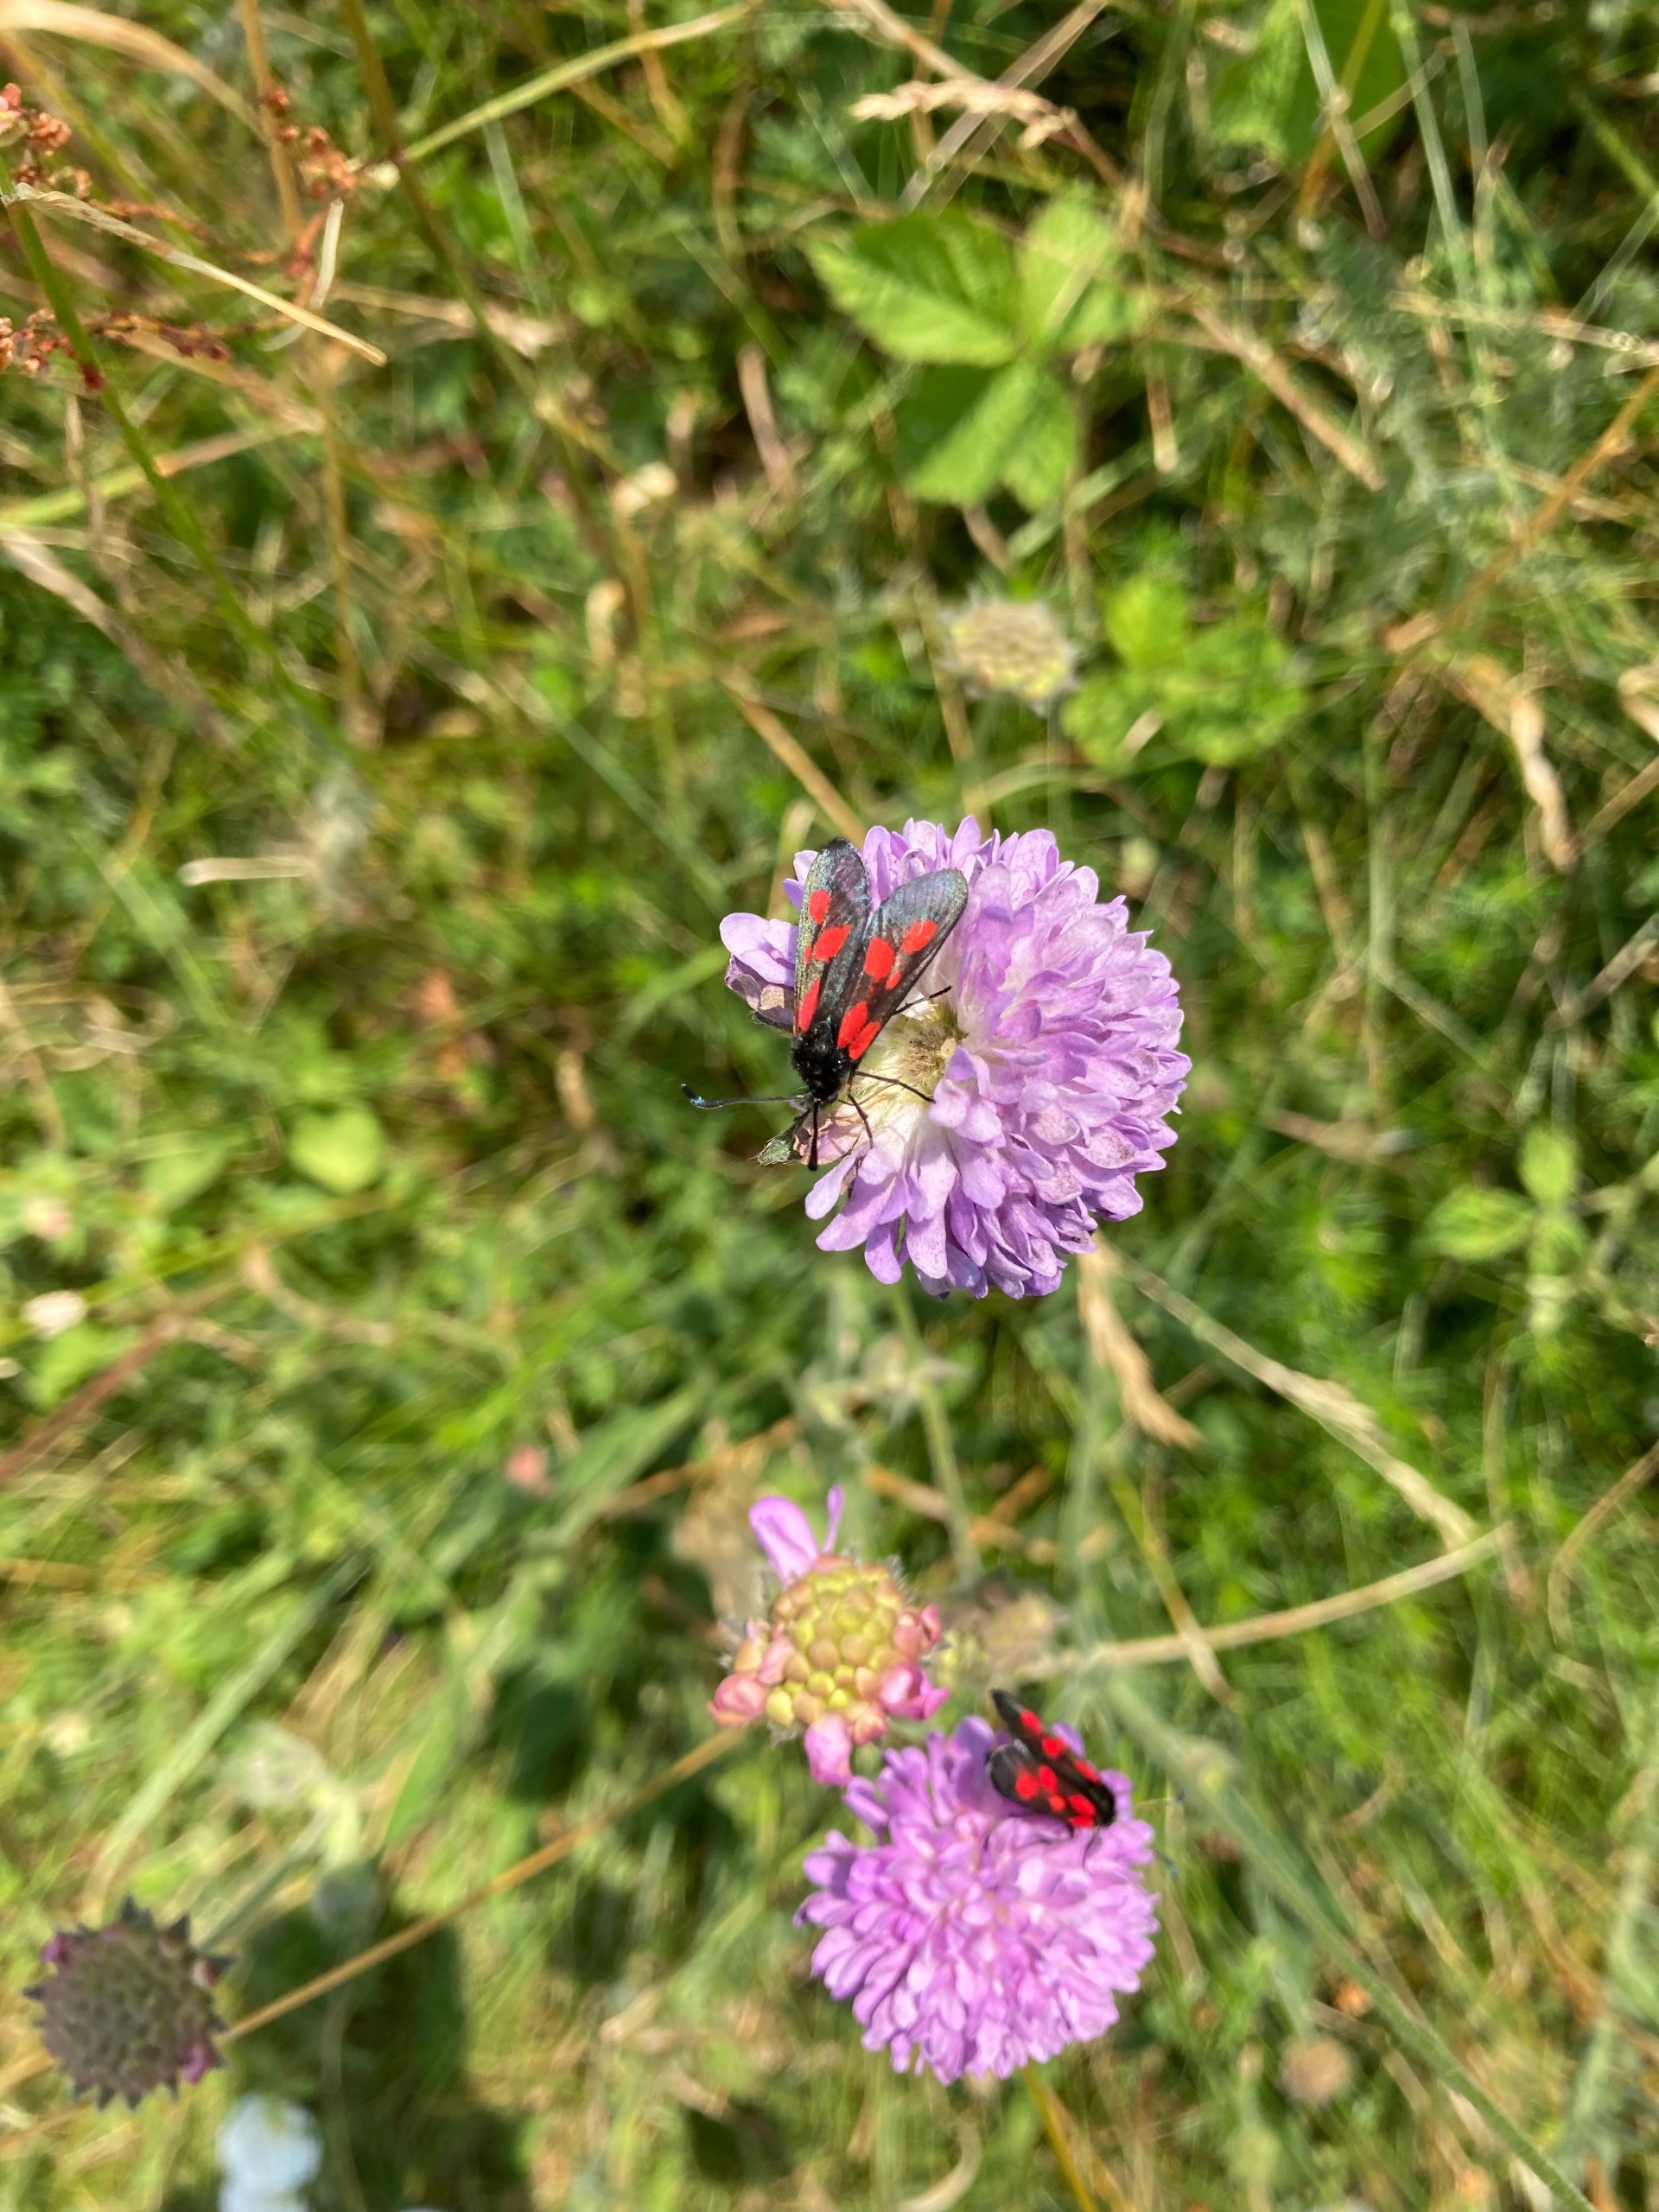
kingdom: Animalia
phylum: Arthropoda
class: Insecta
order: Lepidoptera
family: Zygaenidae
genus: Zygaena
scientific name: Zygaena lonicerae
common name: Femplettet køllesværmer
